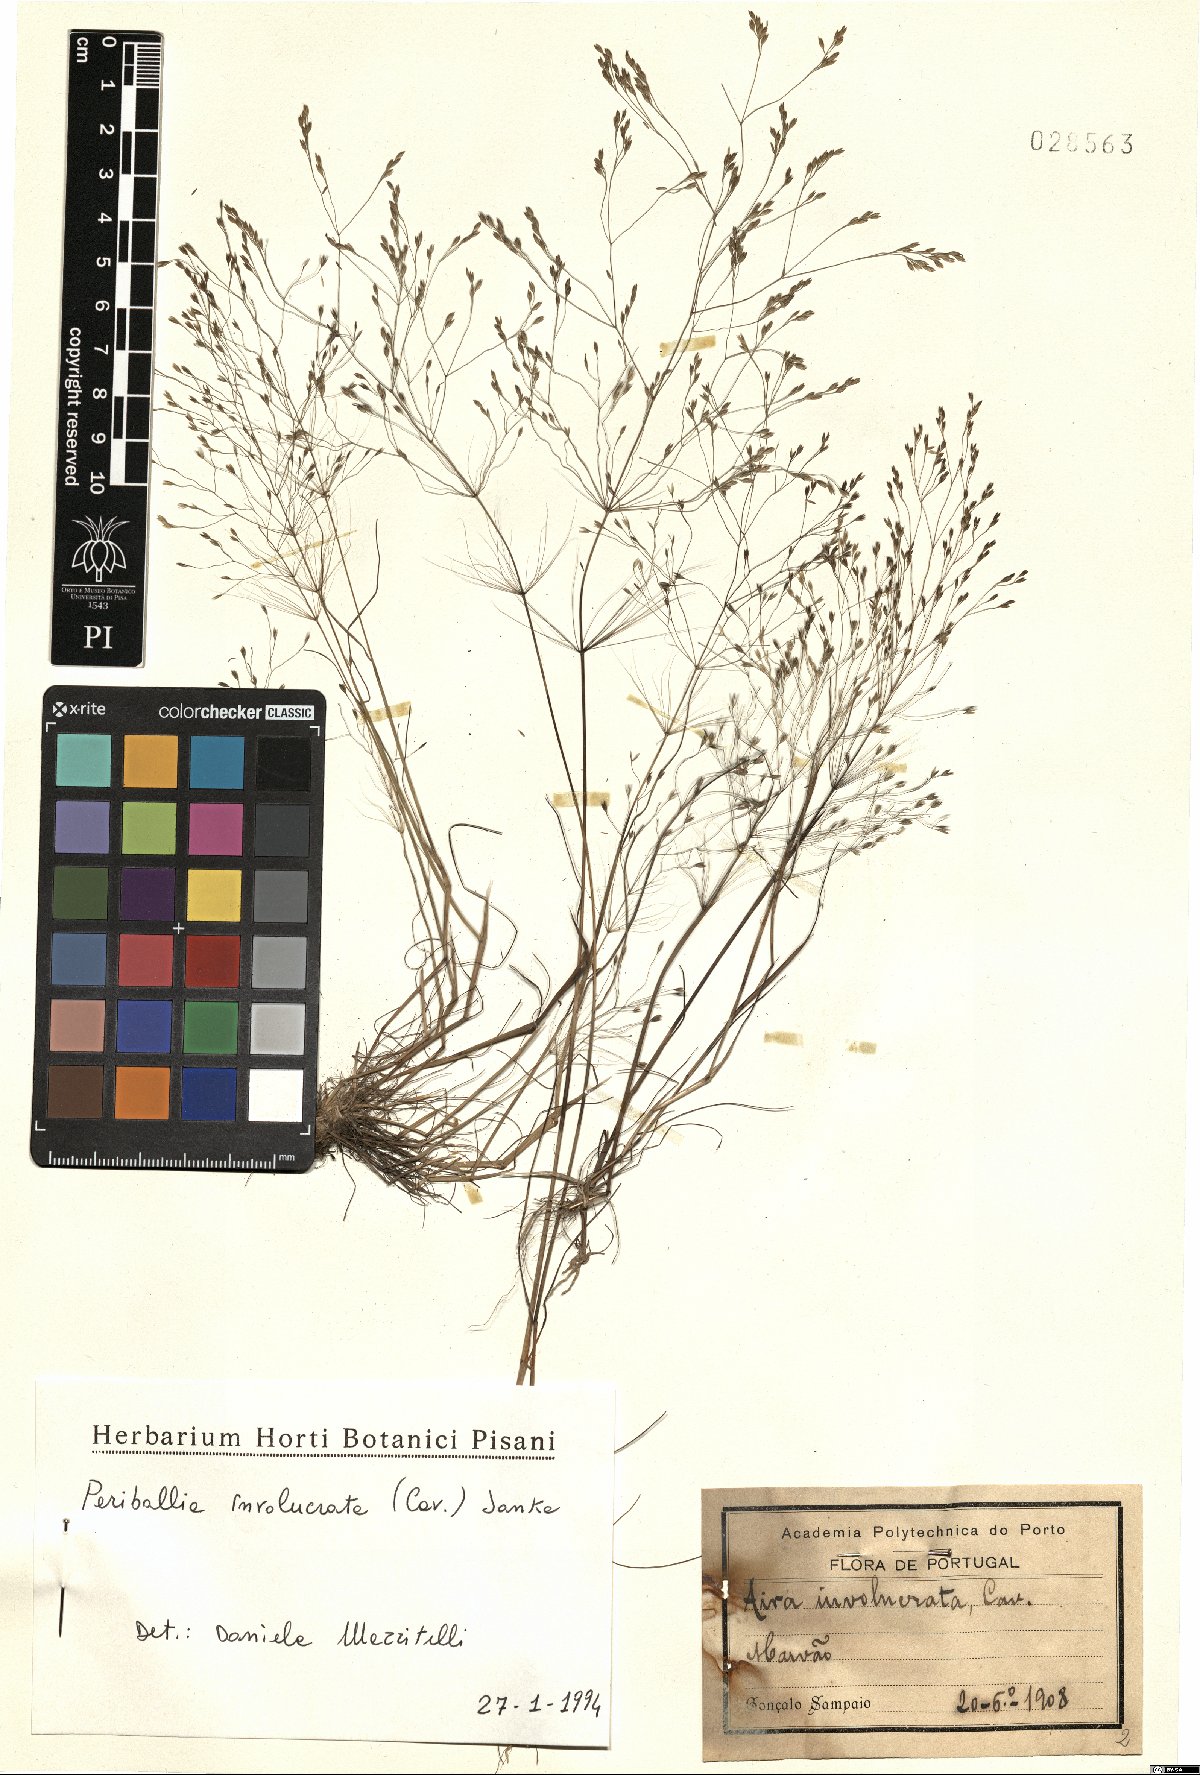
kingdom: Plantae
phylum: Tracheophyta
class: Liliopsida
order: Poales
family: Poaceae
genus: Periballia
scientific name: Periballia involucrata
